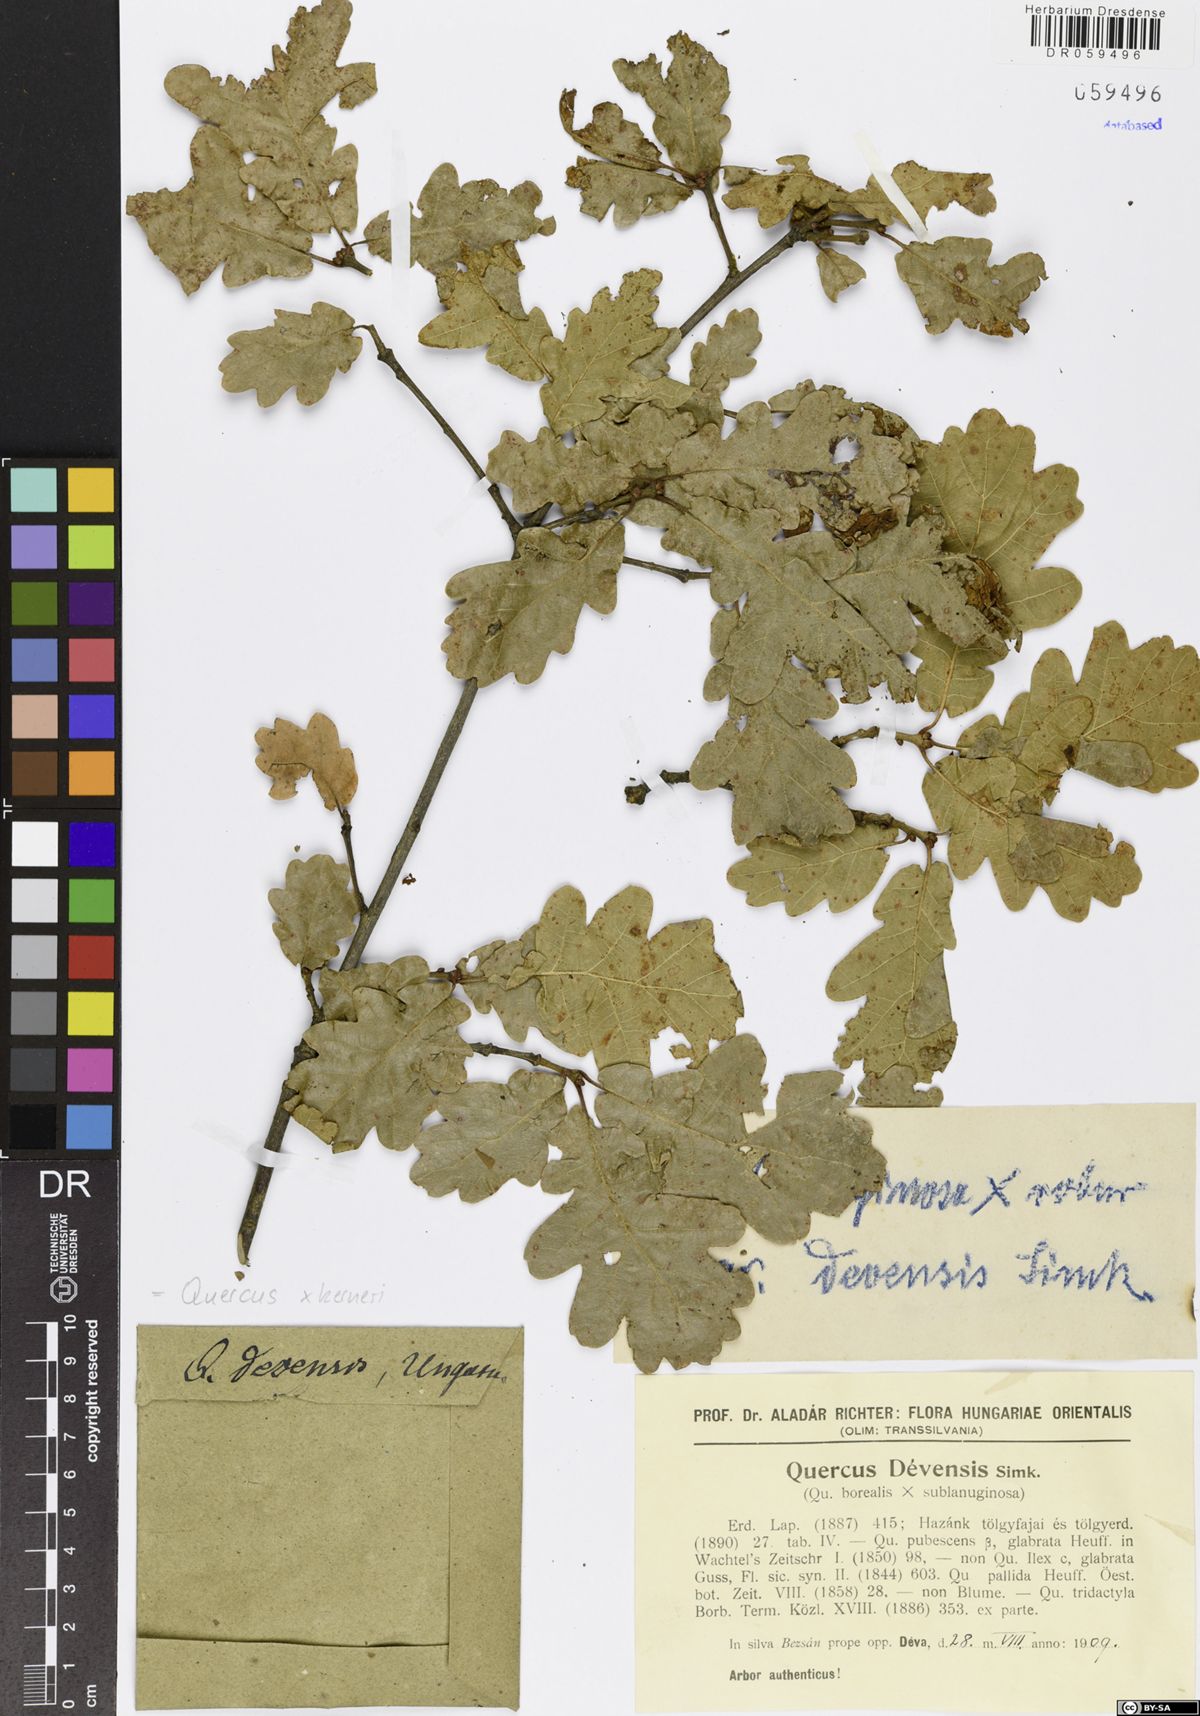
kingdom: Plantae
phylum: Tracheophyta
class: Magnoliopsida
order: Fagales
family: Fagaceae
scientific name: Fagaceae
